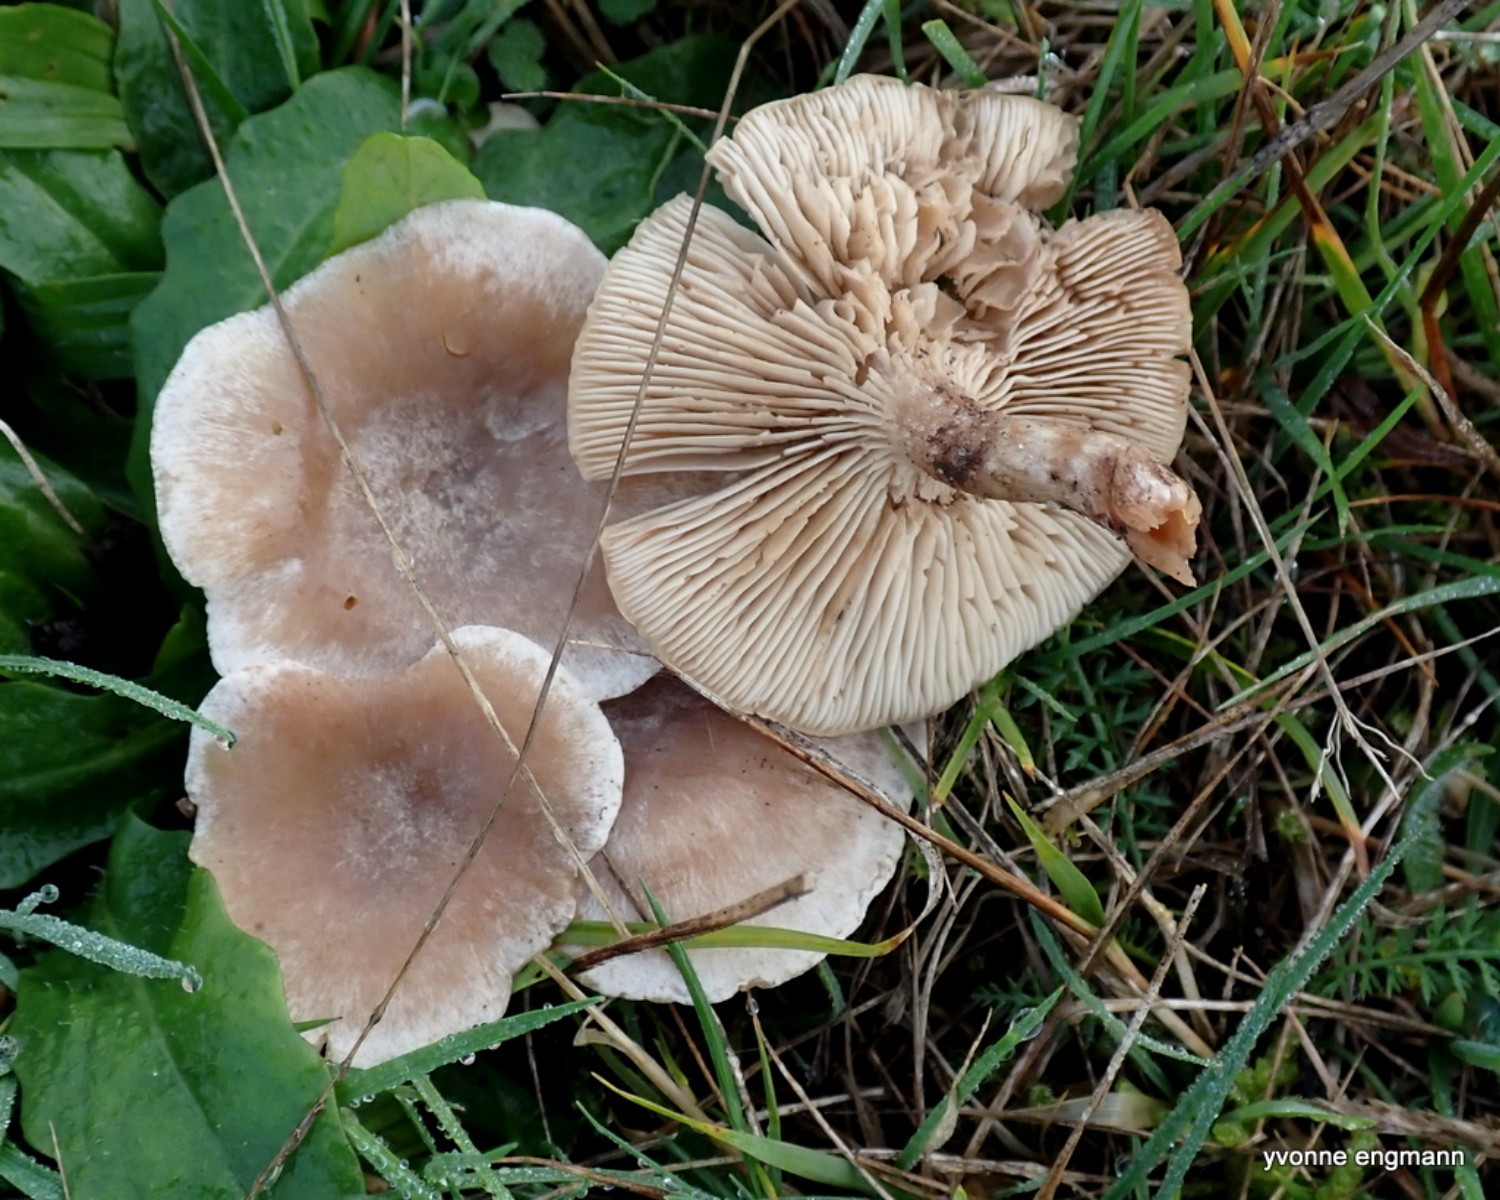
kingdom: Fungi
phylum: Basidiomycota
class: Agaricomycetes
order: Agaricales
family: Tricholomataceae
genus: Clitocybe
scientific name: Clitocybe rivulosa
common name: eng-tragthat
